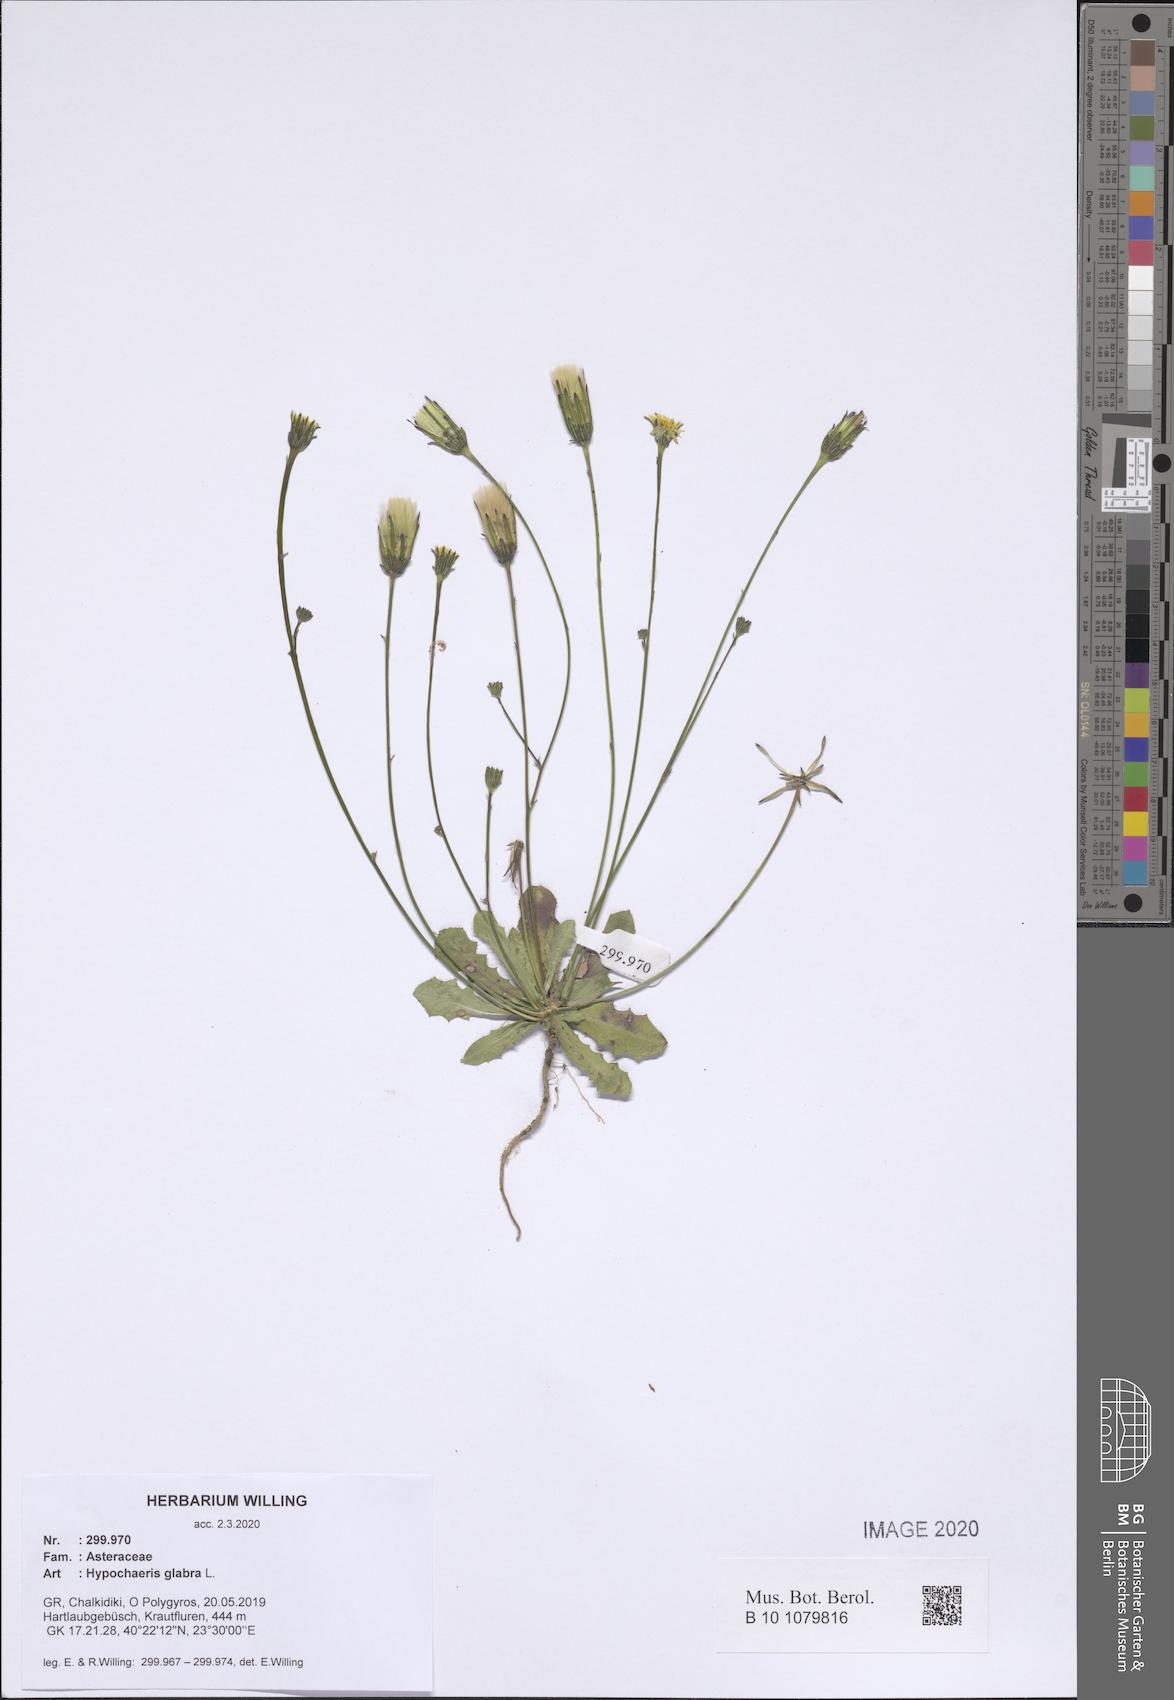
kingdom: Plantae
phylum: Tracheophyta
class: Magnoliopsida
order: Asterales
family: Asteraceae
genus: Hypochaeris
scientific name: Hypochaeris glabra
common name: Smooth catsear
